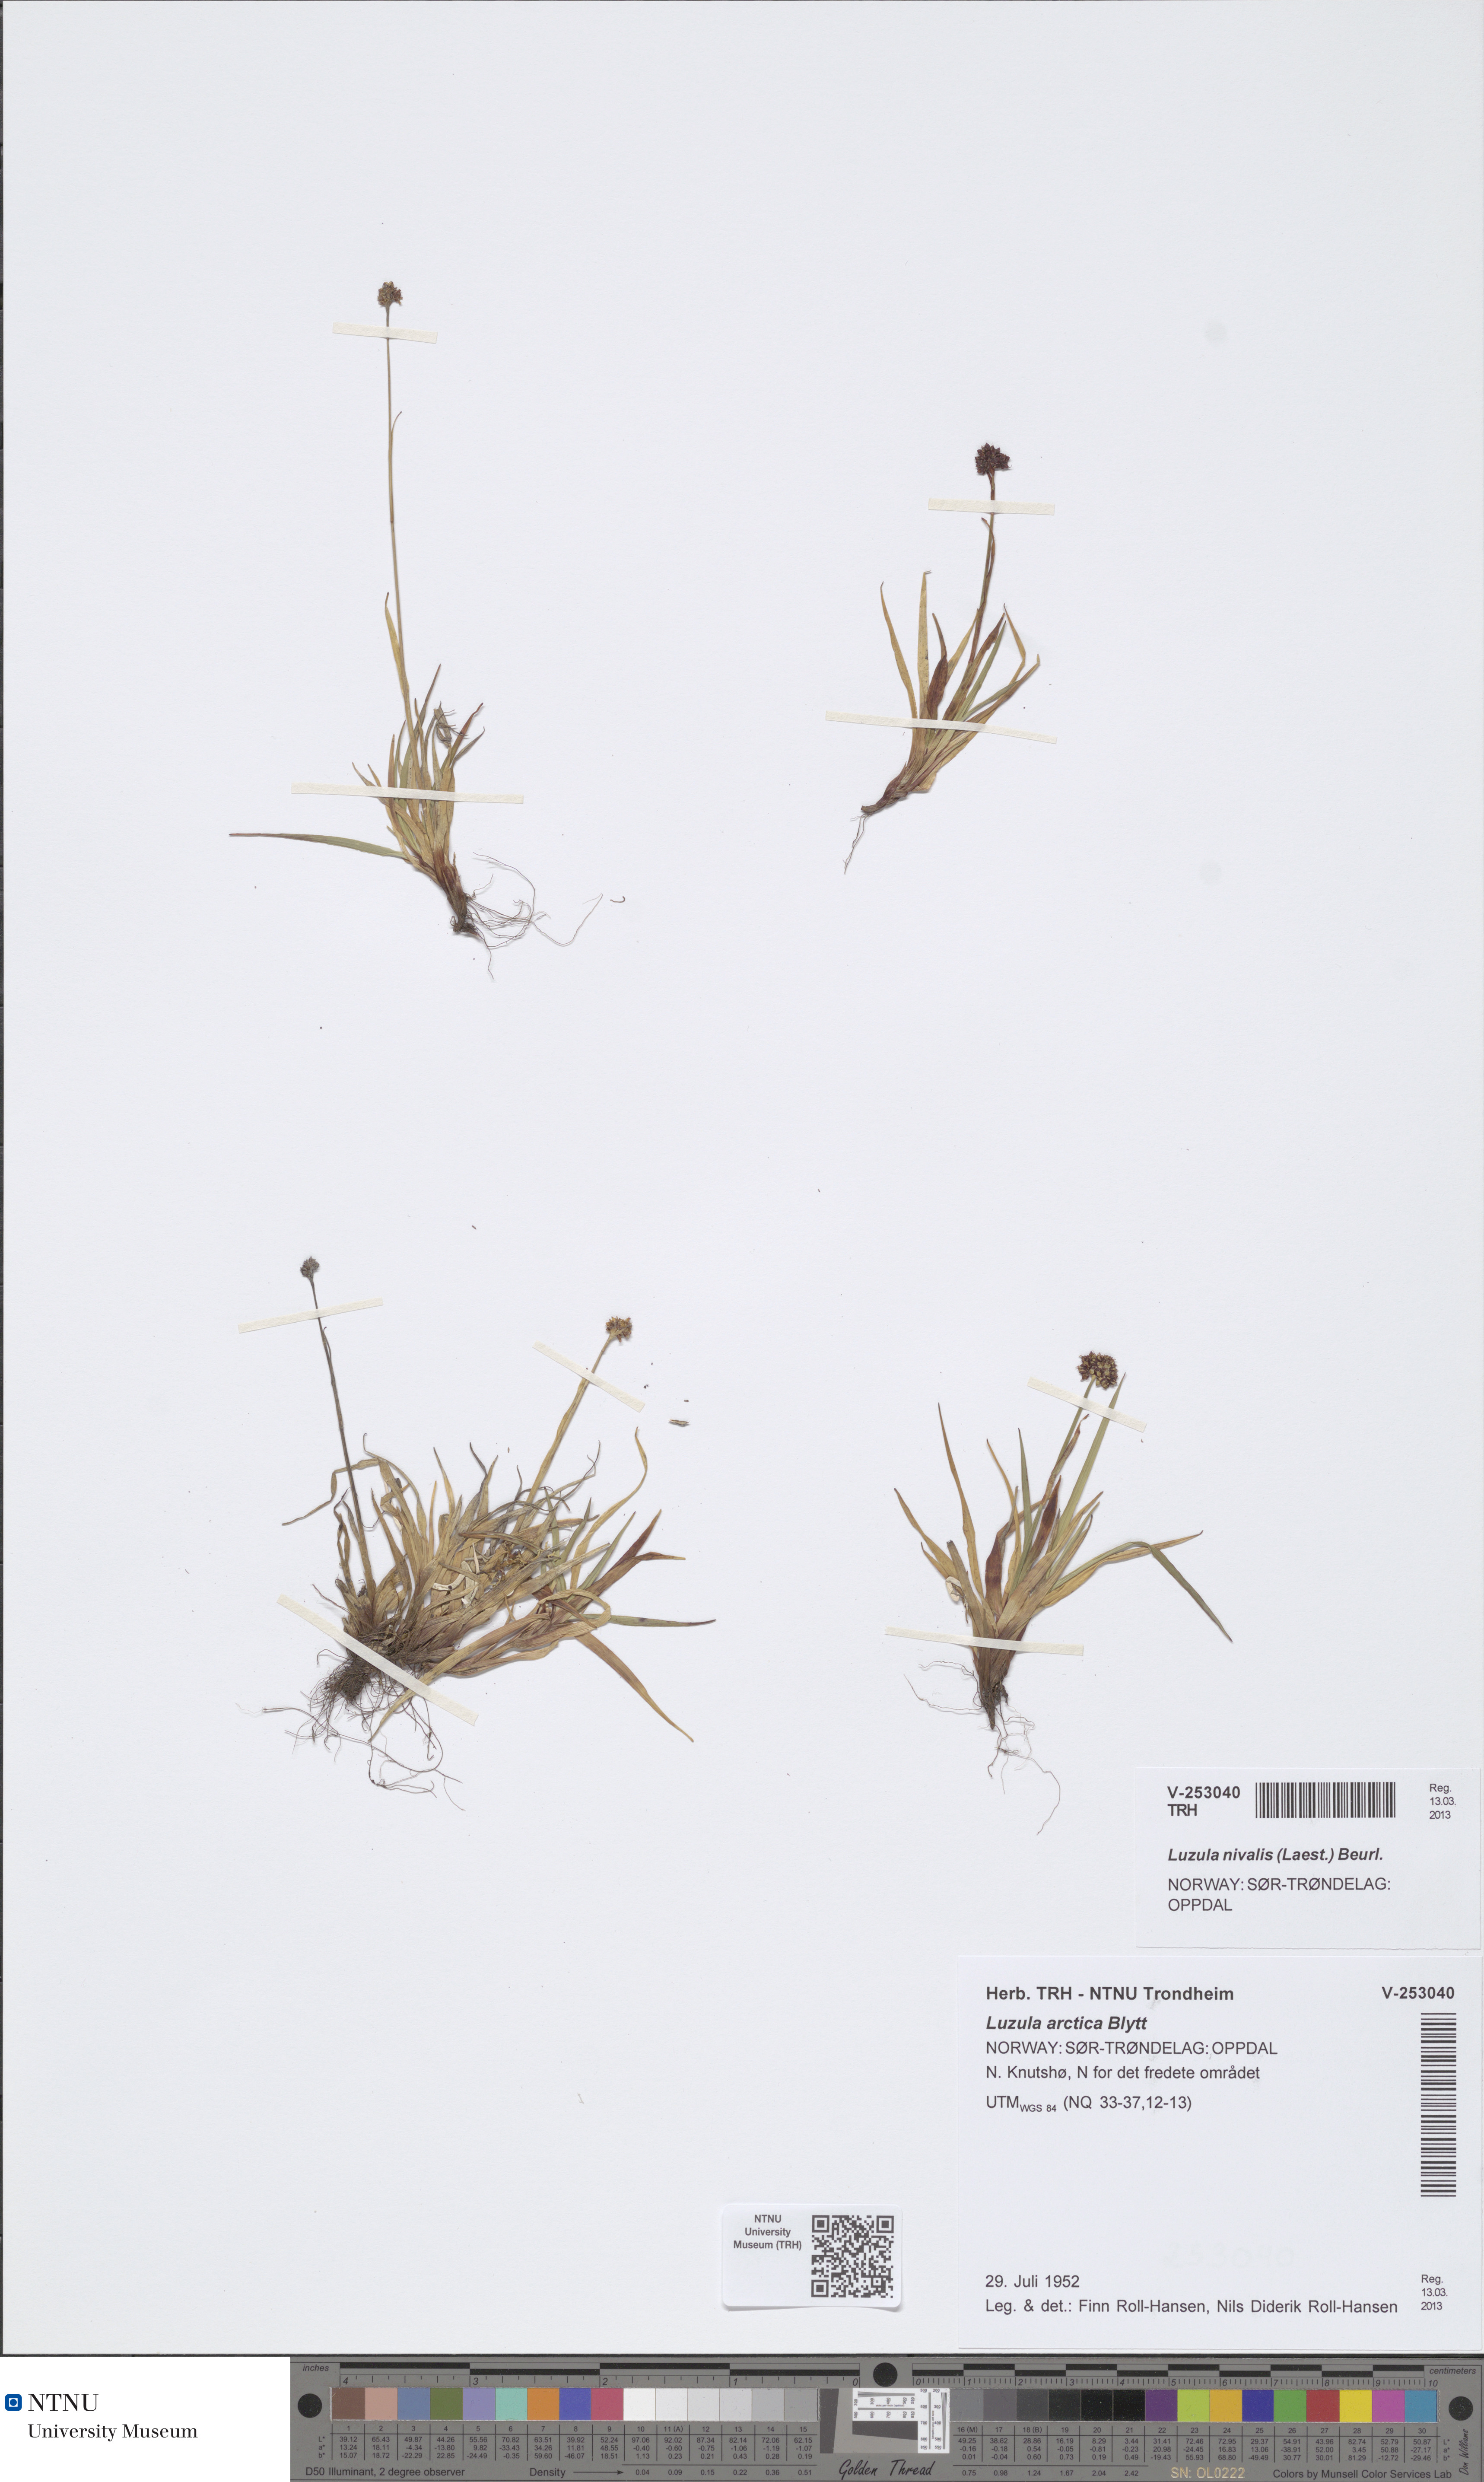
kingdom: Plantae
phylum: Tracheophyta
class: Liliopsida
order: Poales
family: Juncaceae
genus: Luzula
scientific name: Luzula nivalis
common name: Arctic woodrush
